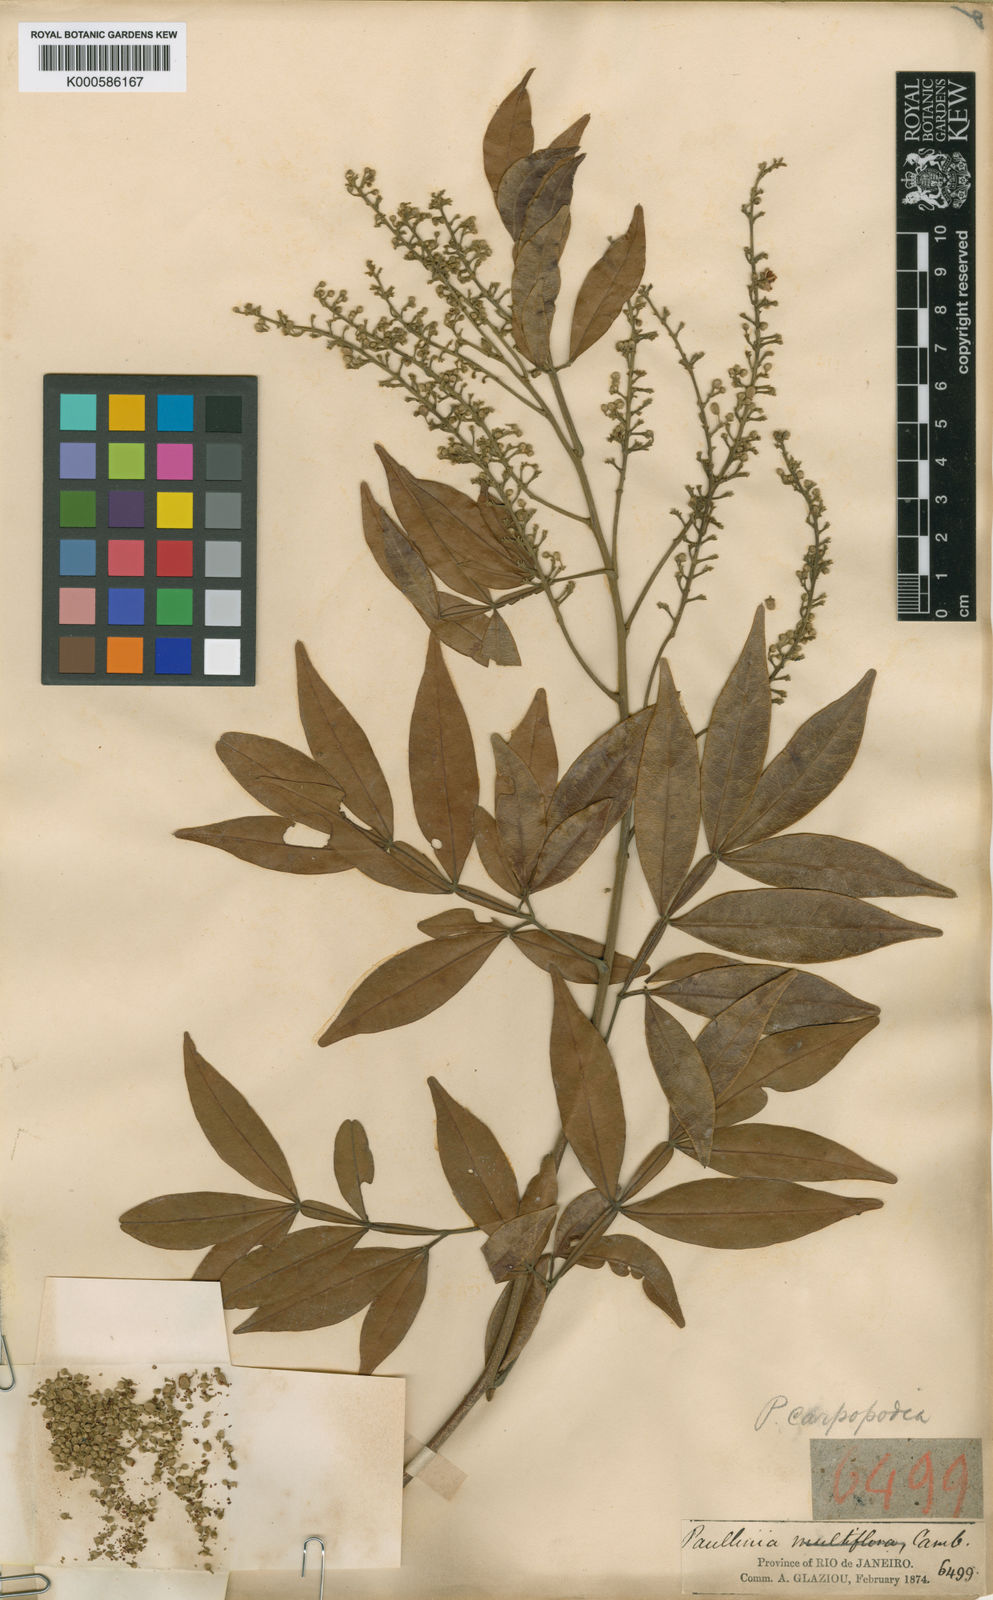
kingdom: Plantae
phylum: Tracheophyta
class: Magnoliopsida
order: Sapindales
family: Sapindaceae
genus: Paullinia
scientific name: Paullinia carpopodea
